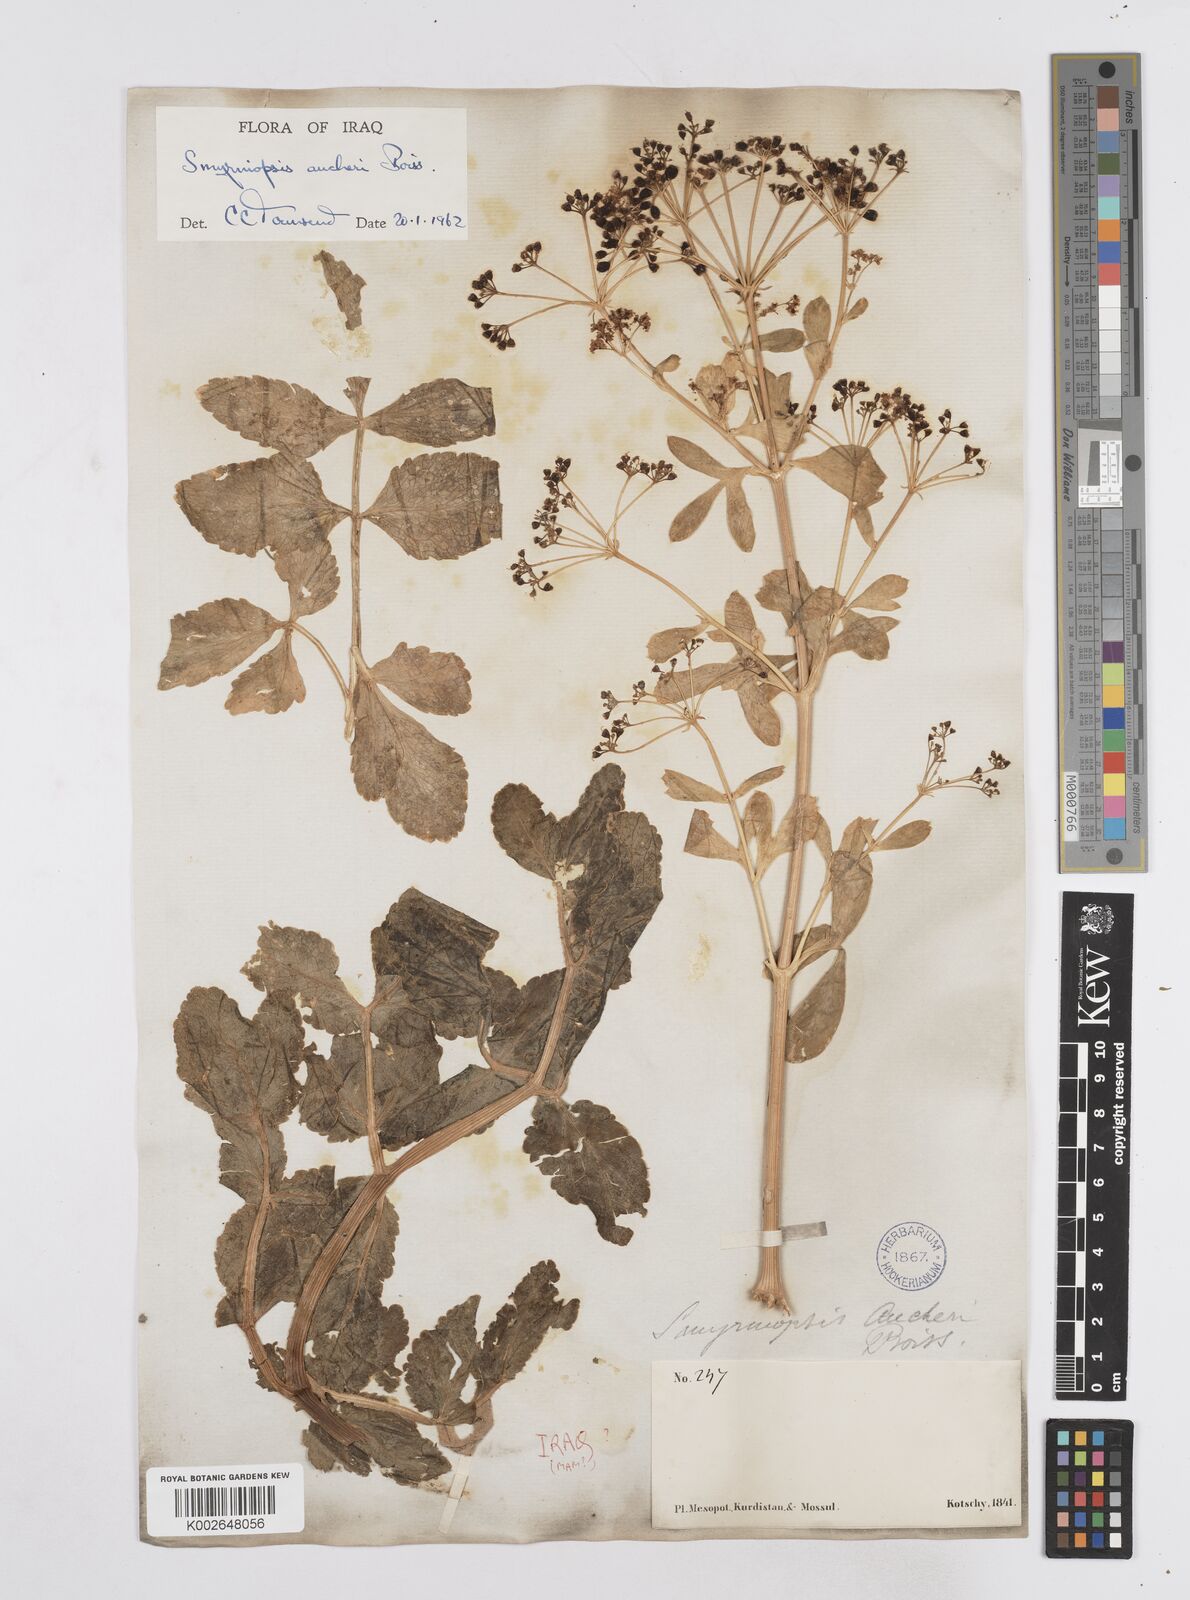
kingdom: Plantae
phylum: Tracheophyta
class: Magnoliopsida
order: Apiales
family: Apiaceae
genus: Smyrniopsis
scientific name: Smyrniopsis aucheri
